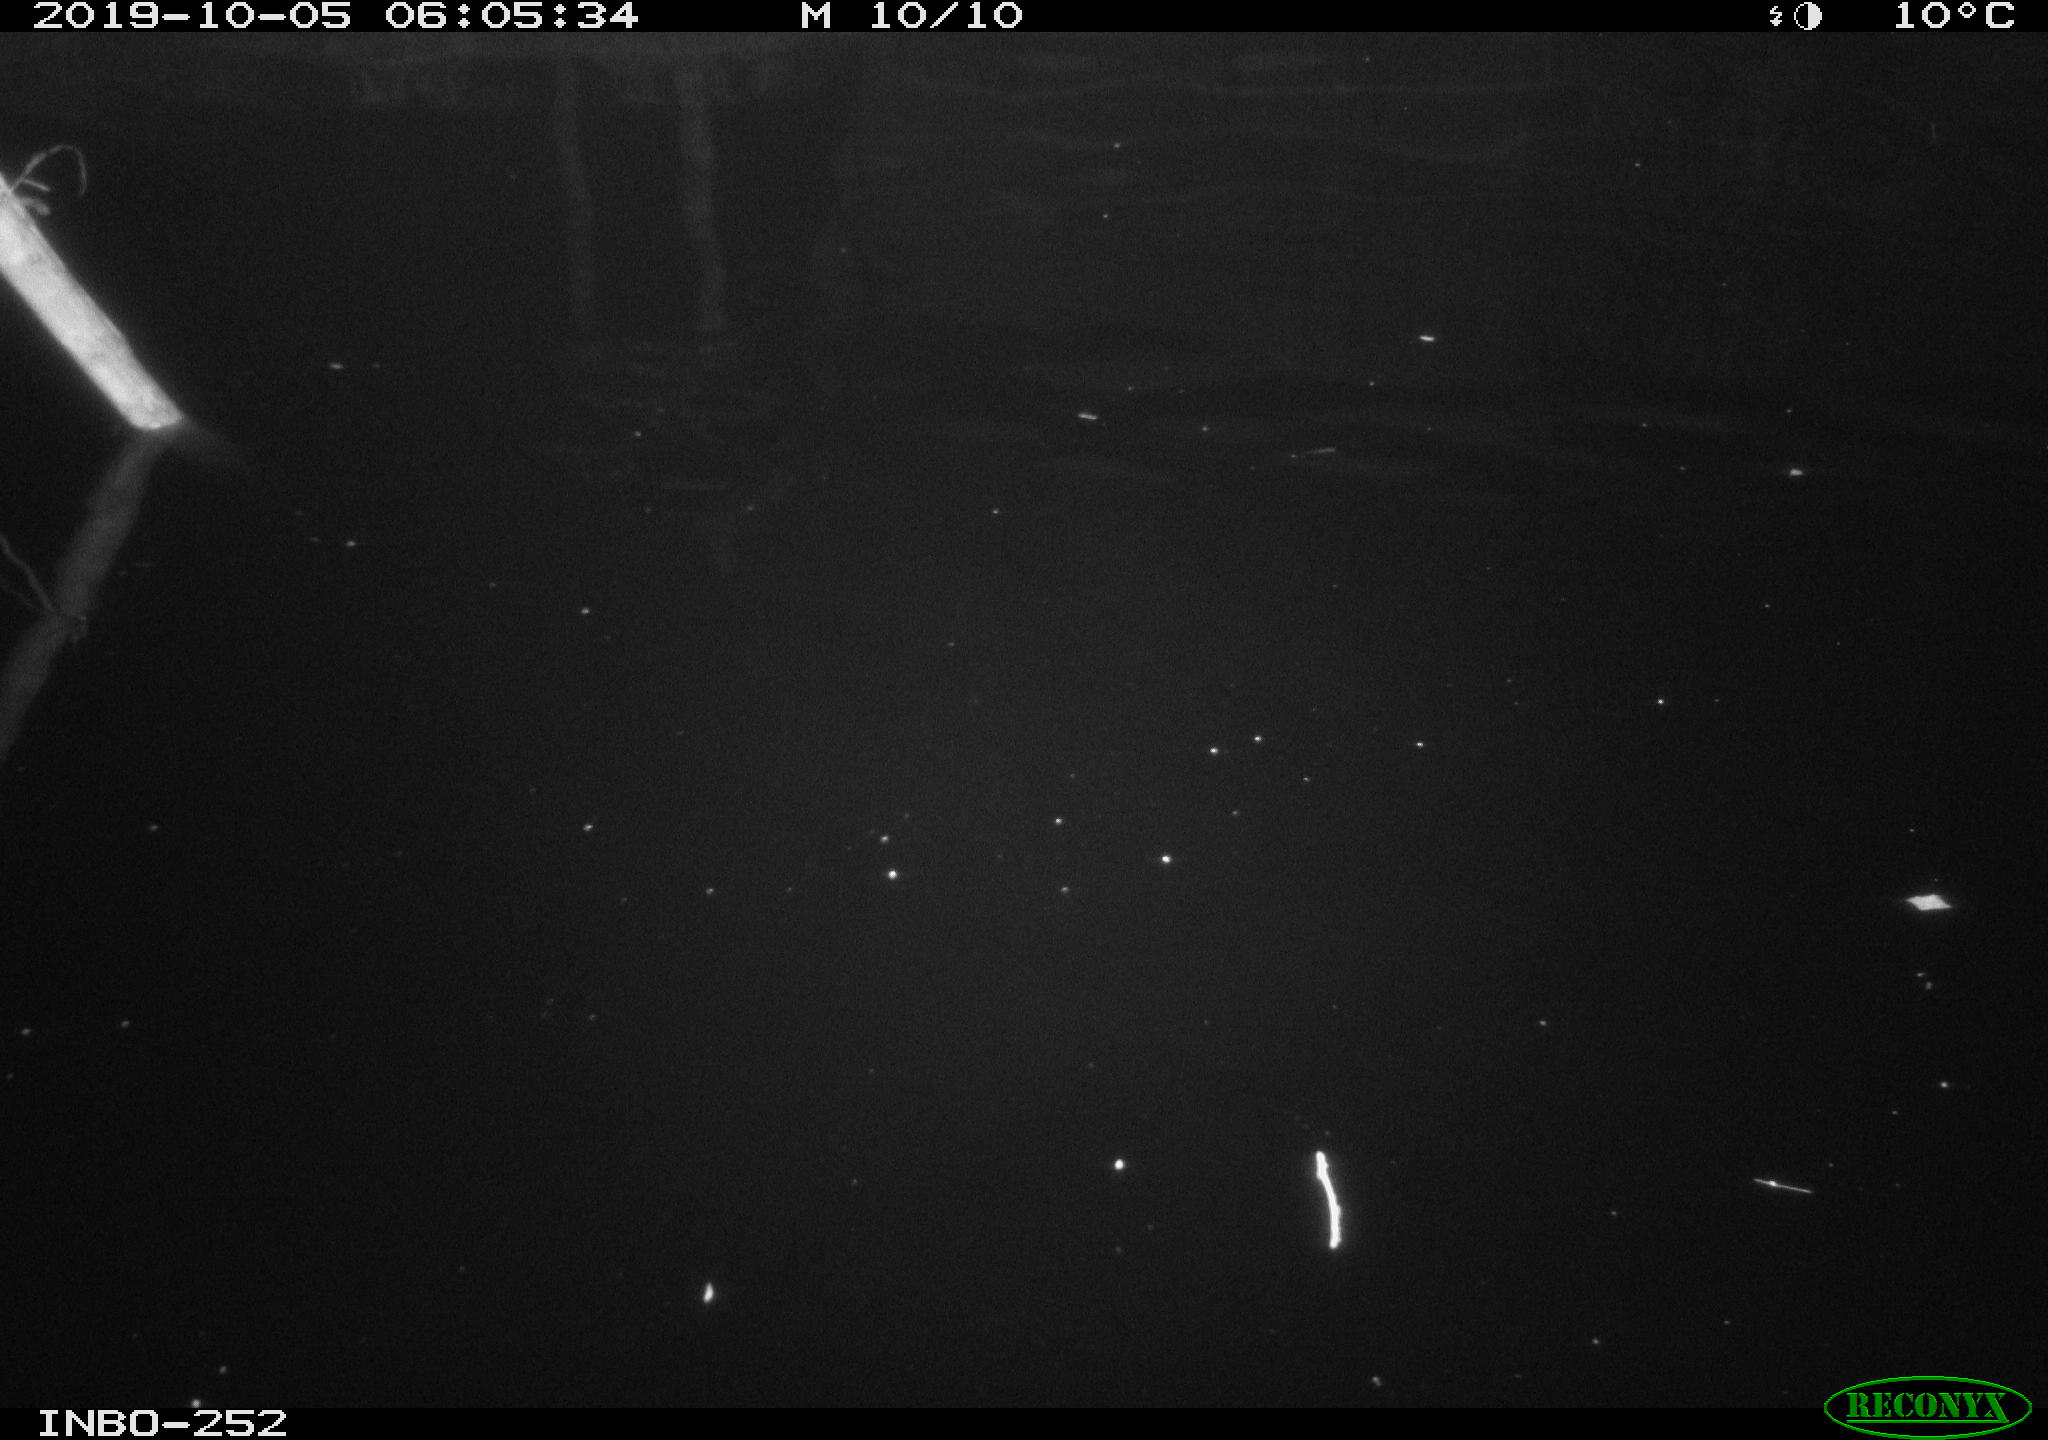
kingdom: Animalia
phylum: Chordata
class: Aves
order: Anseriformes
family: Anatidae
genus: Anas
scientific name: Anas platyrhynchos
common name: Mallard
